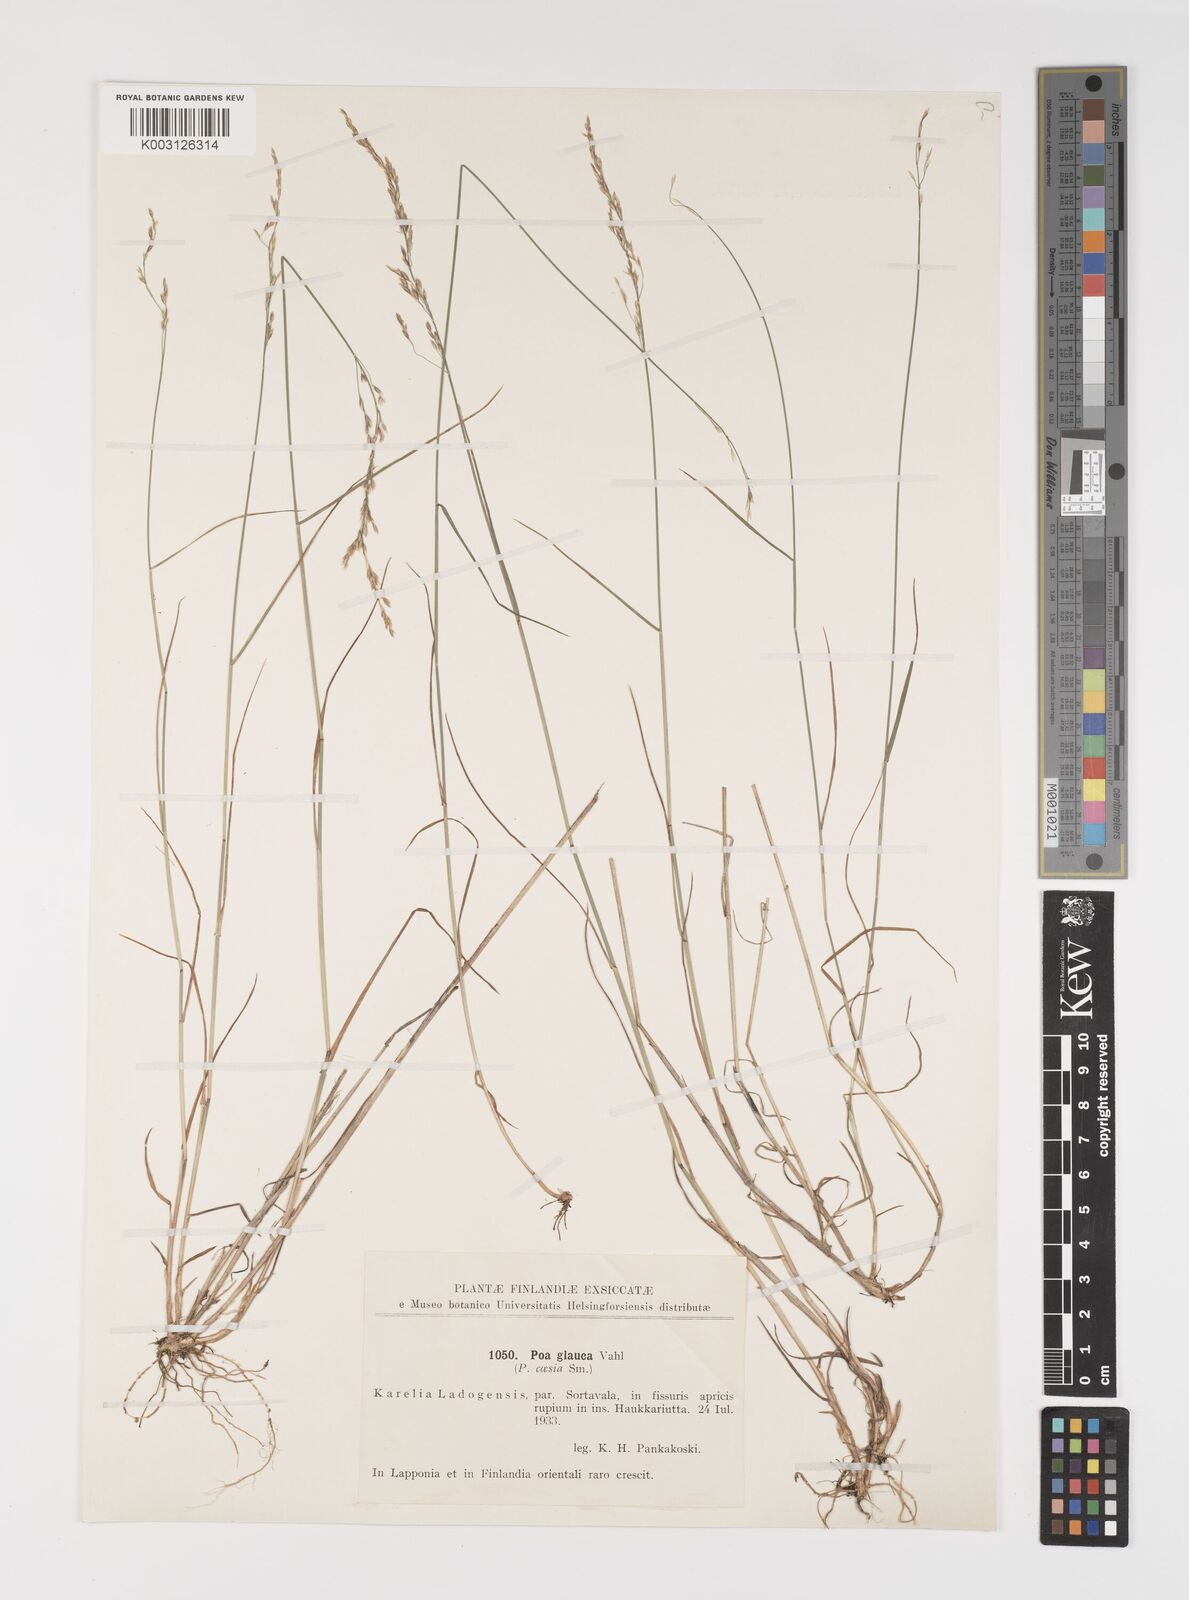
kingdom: Plantae
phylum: Tracheophyta
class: Liliopsida
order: Poales
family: Poaceae
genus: Poa
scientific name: Poa glauca
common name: Glaucous bluegrass
